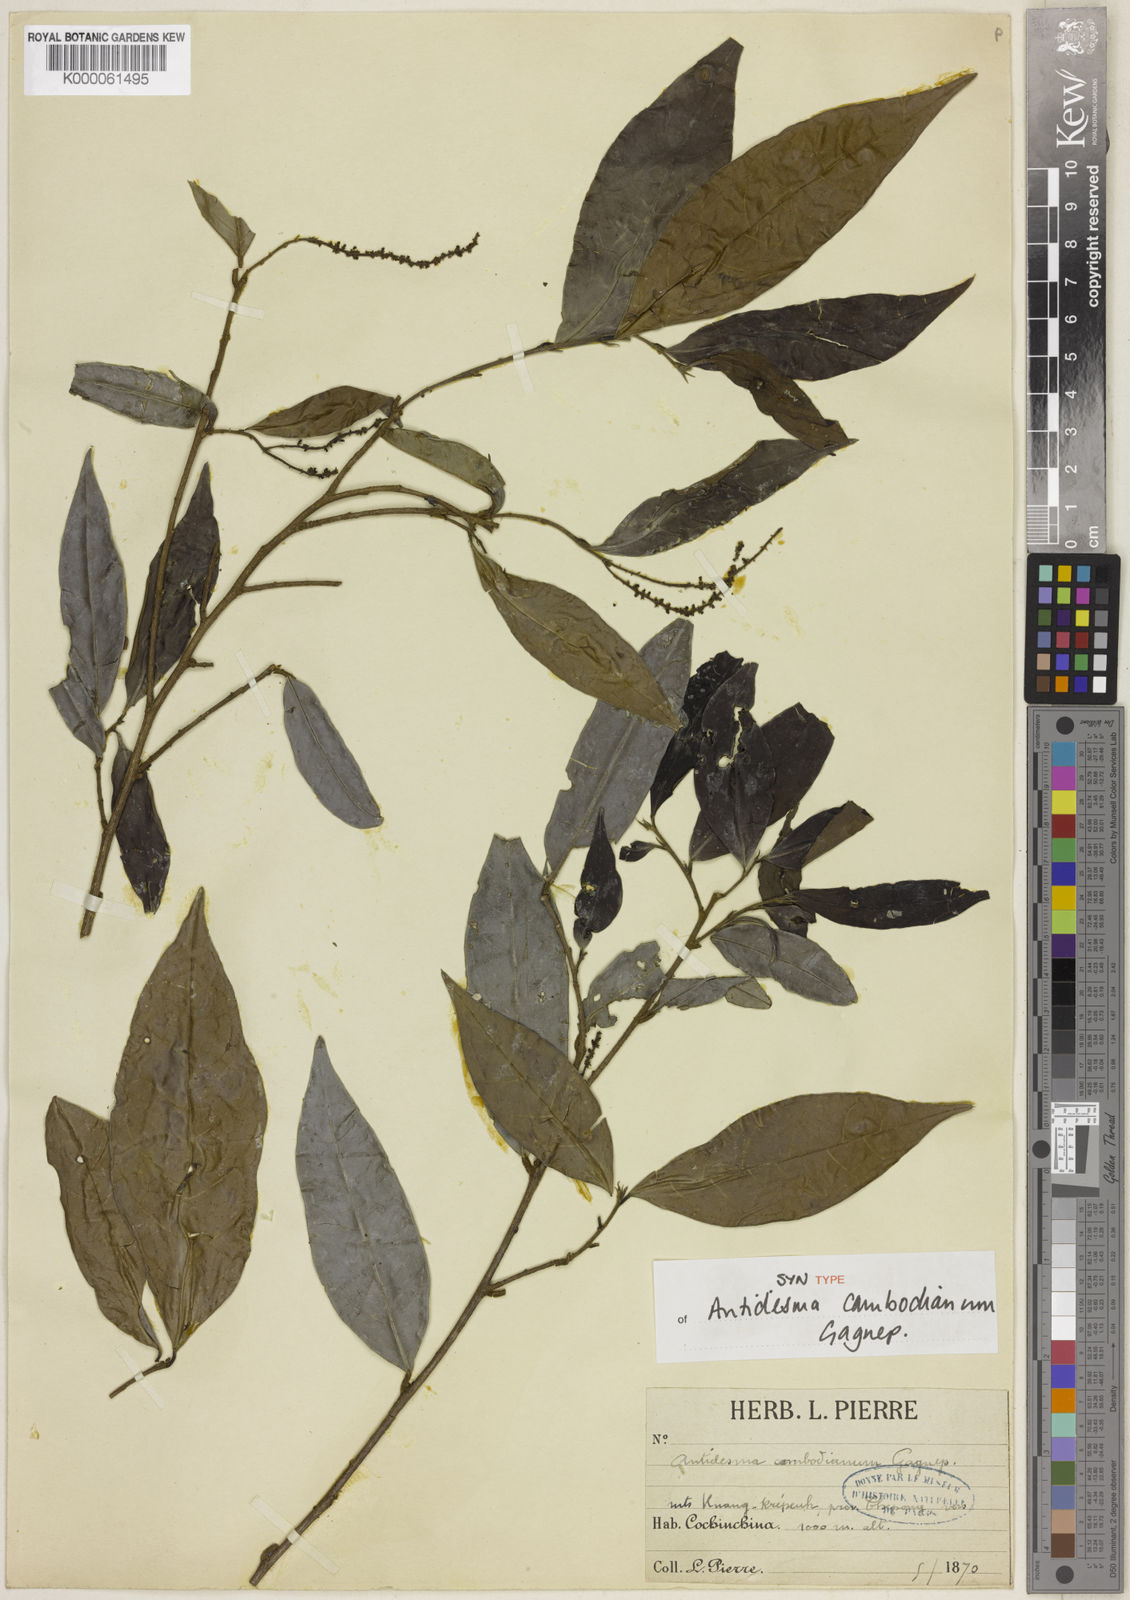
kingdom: Plantae
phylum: Tracheophyta
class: Magnoliopsida
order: Malpighiales
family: Phyllanthaceae
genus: Antidesma
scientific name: Antidesma japonicum
